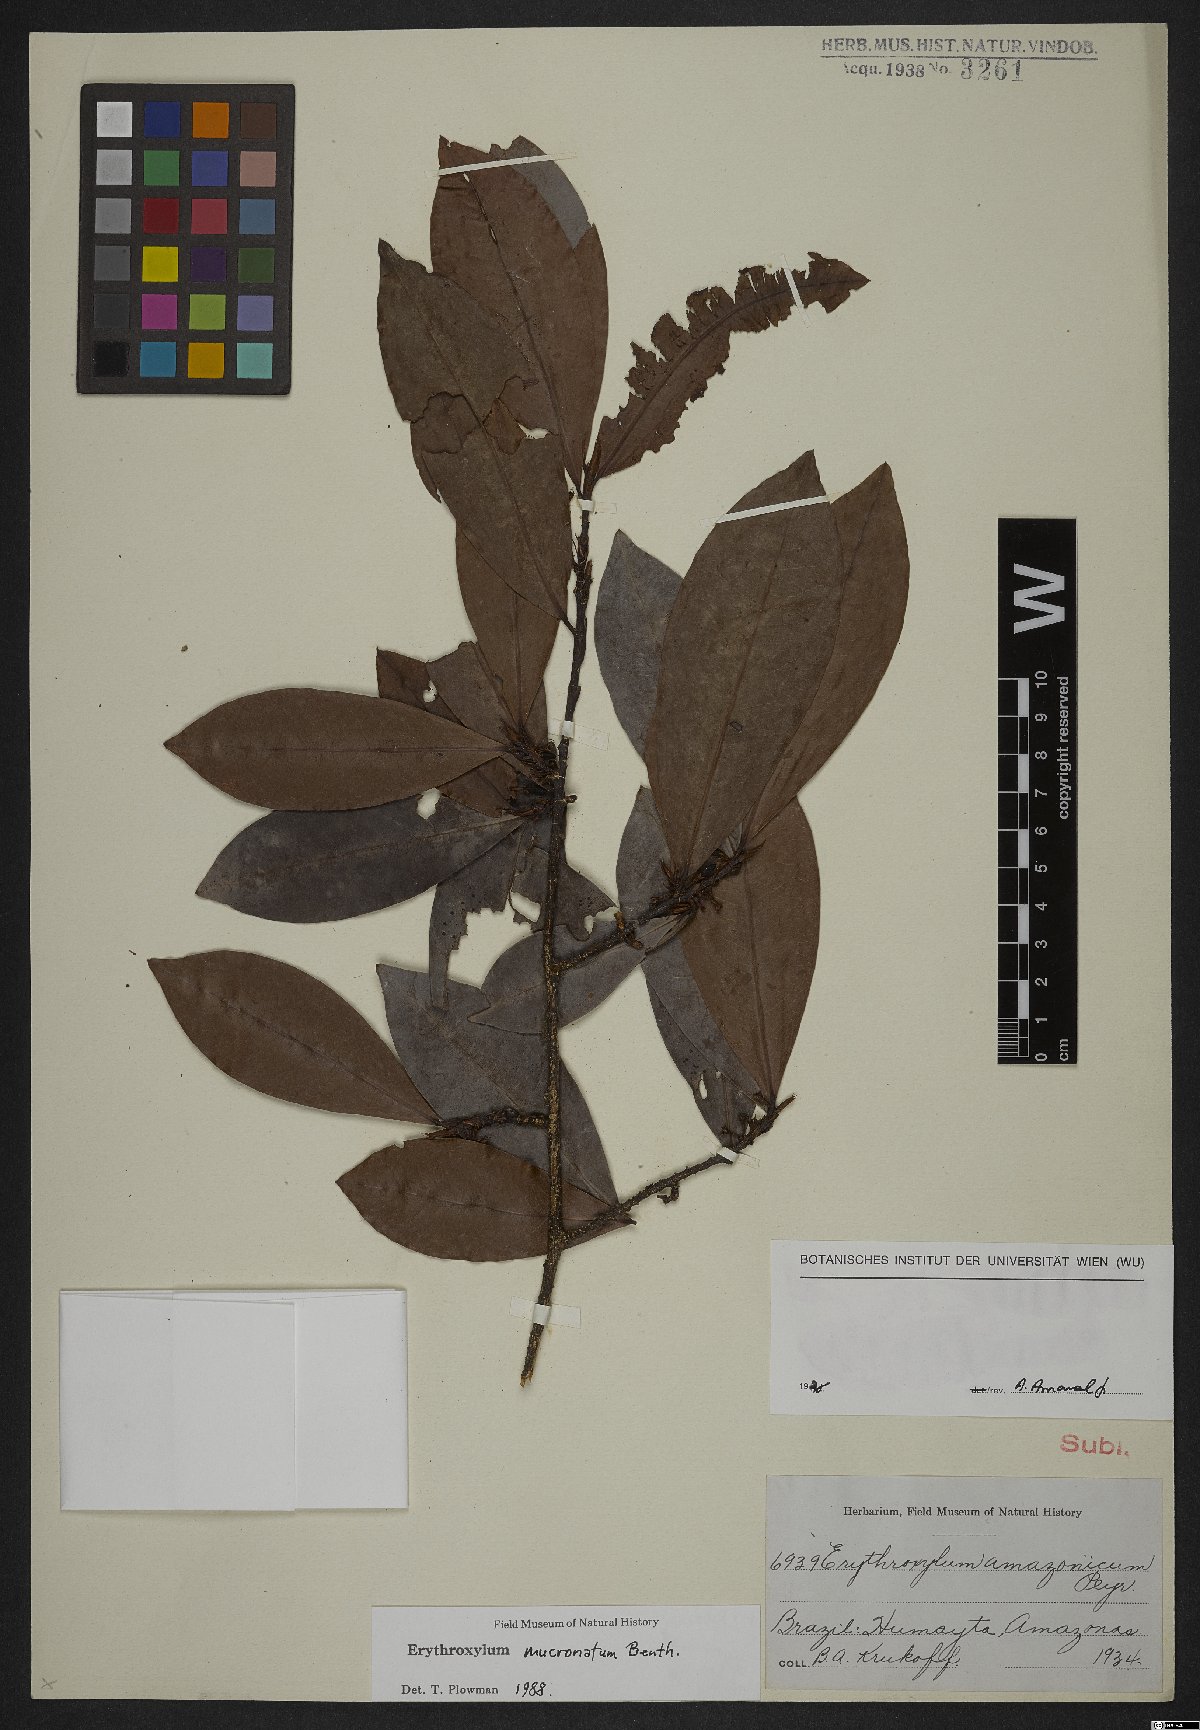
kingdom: Plantae
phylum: Tracheophyta
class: Magnoliopsida
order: Malpighiales
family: Erythroxylaceae
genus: Erythroxylum
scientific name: Erythroxylum mucronatum
